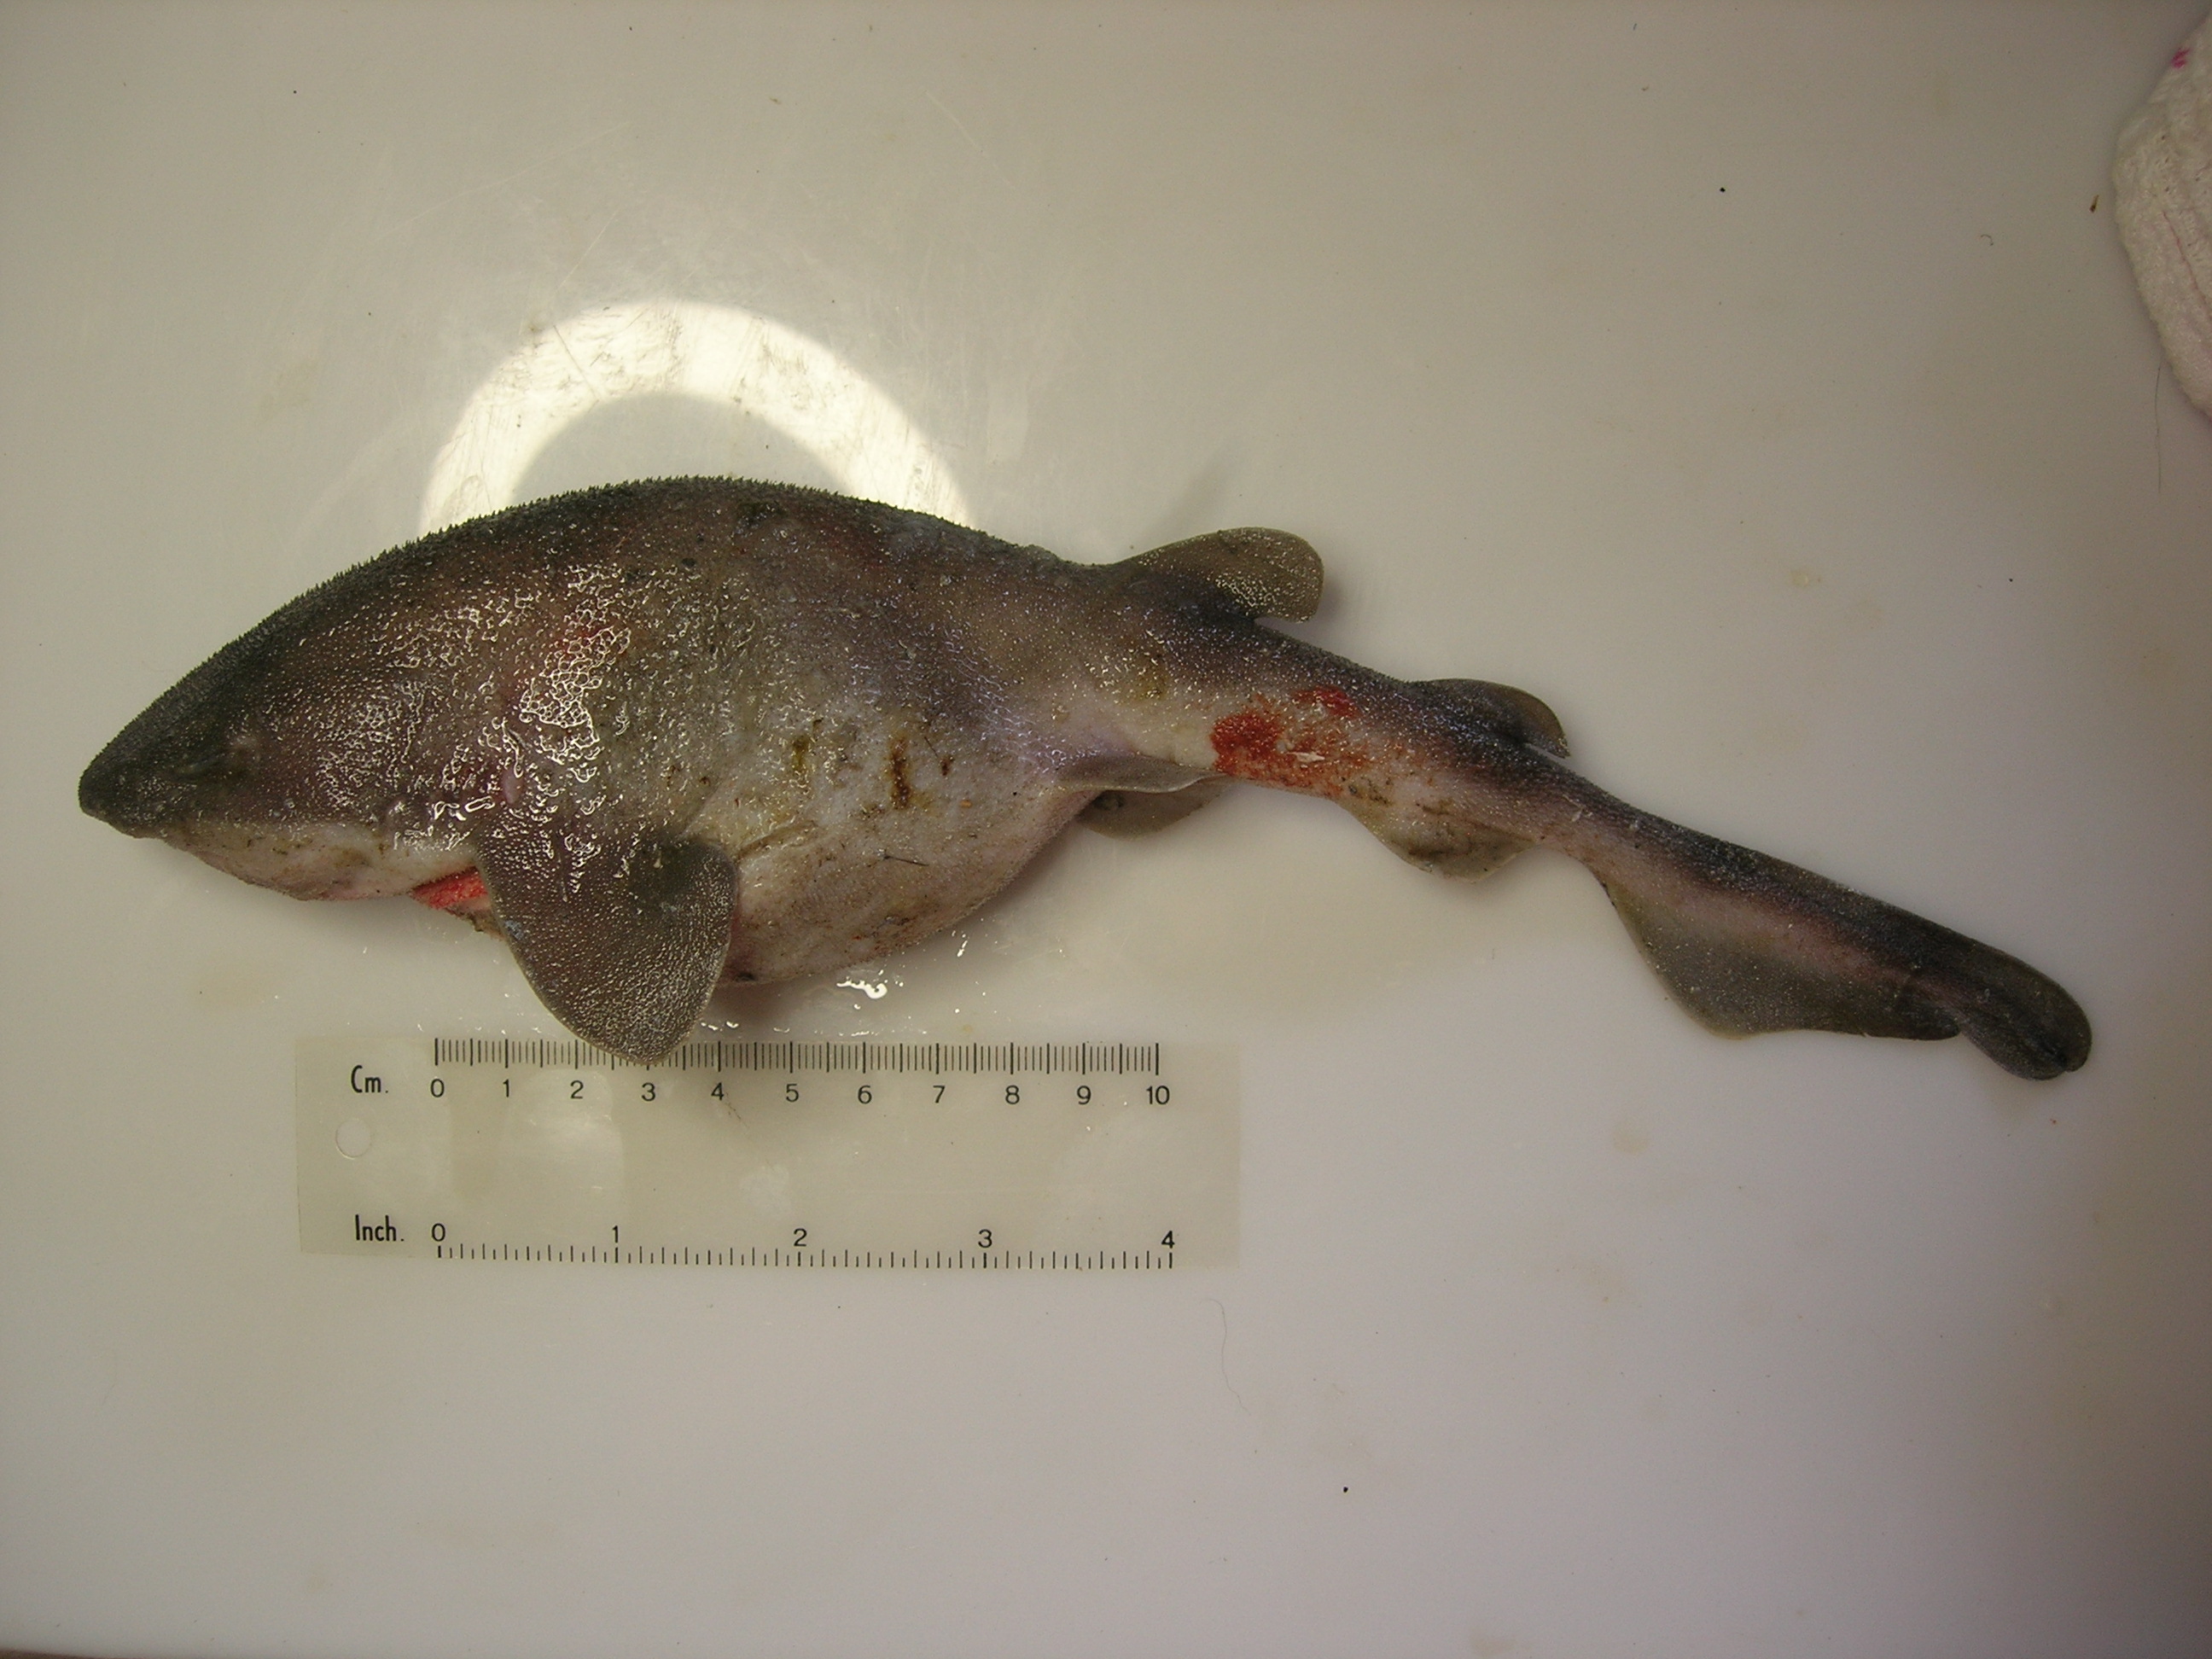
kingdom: Animalia
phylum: Chordata
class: Elasmobranchii
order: Carcharhiniformes
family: Scyliorhinidae
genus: Cephaloscyllium
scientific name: Cephaloscyllium sufflans
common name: Balloon shark
